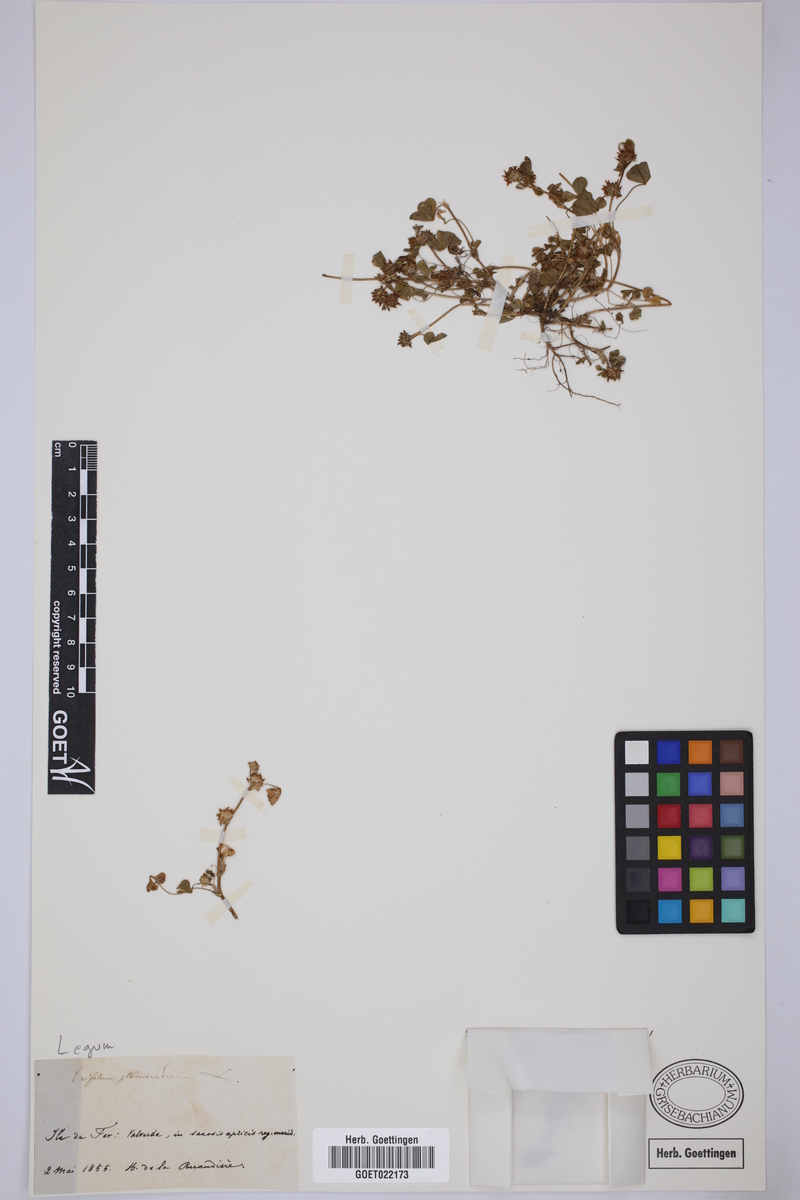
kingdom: Plantae
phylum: Tracheophyta
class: Magnoliopsida
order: Fabales
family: Fabaceae
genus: Trifolium
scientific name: Trifolium glomeratum
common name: Clustered clover
